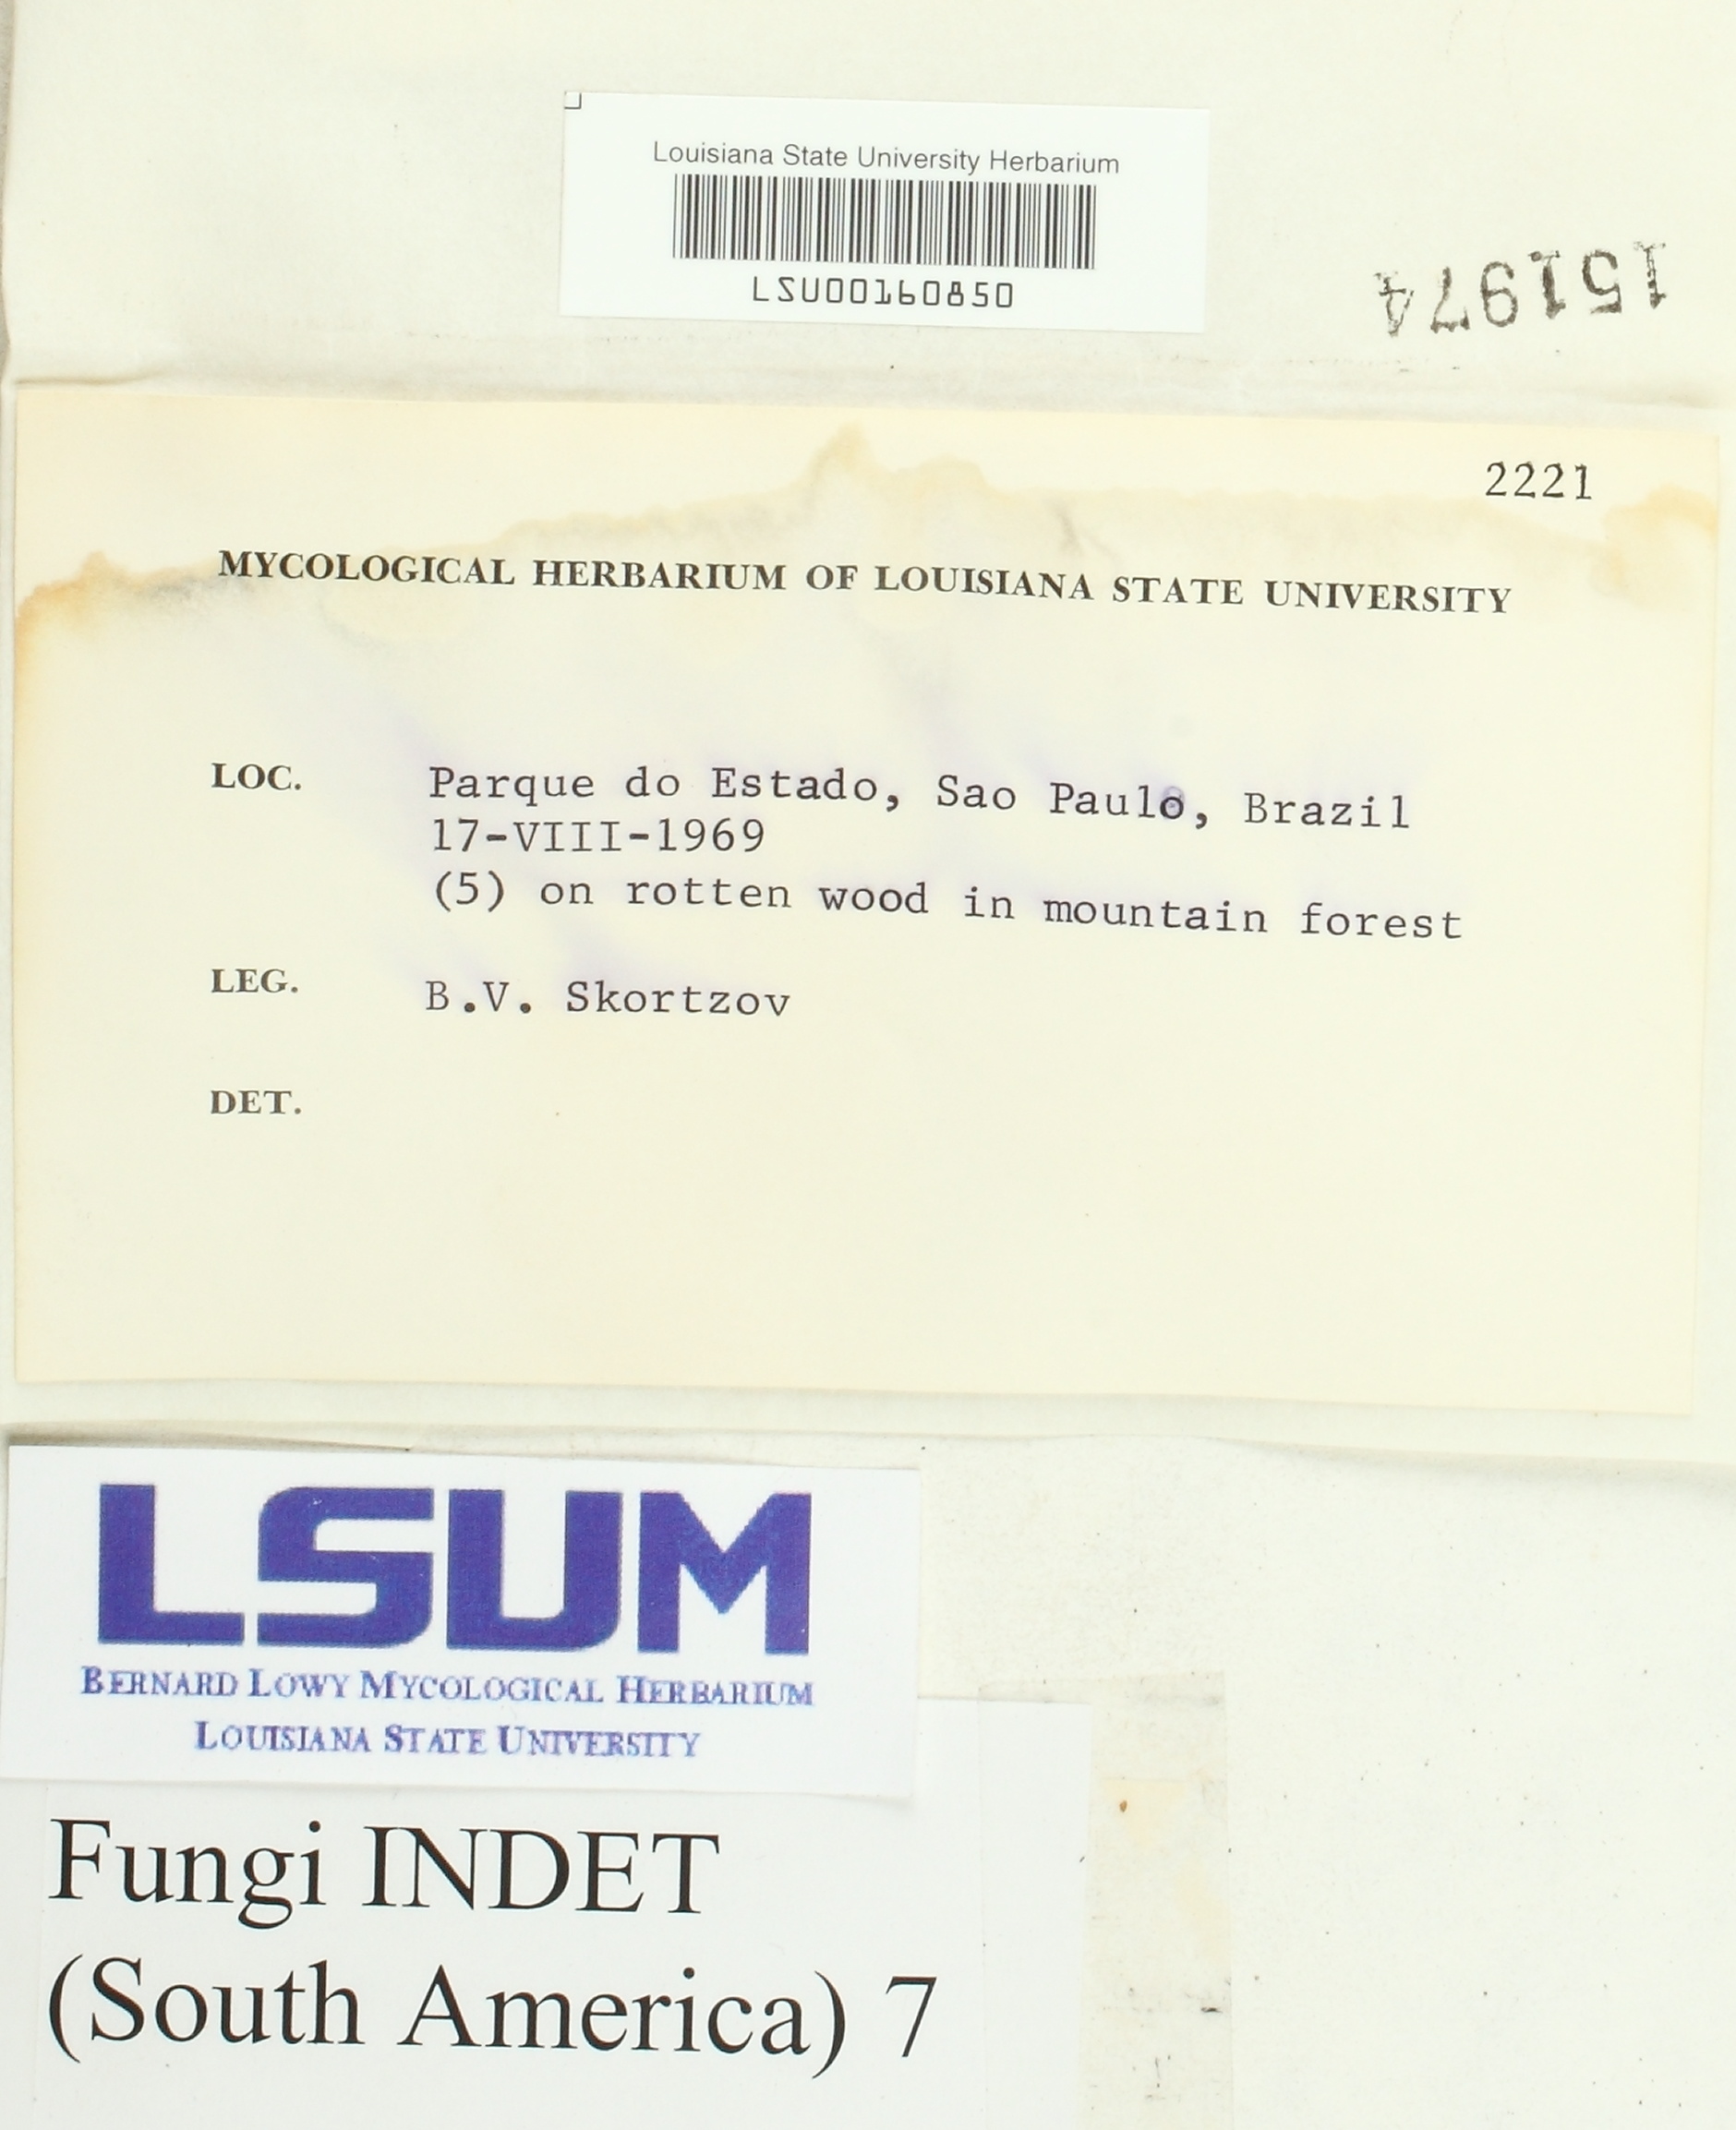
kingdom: Fungi
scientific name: Fungi
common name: Fungi
